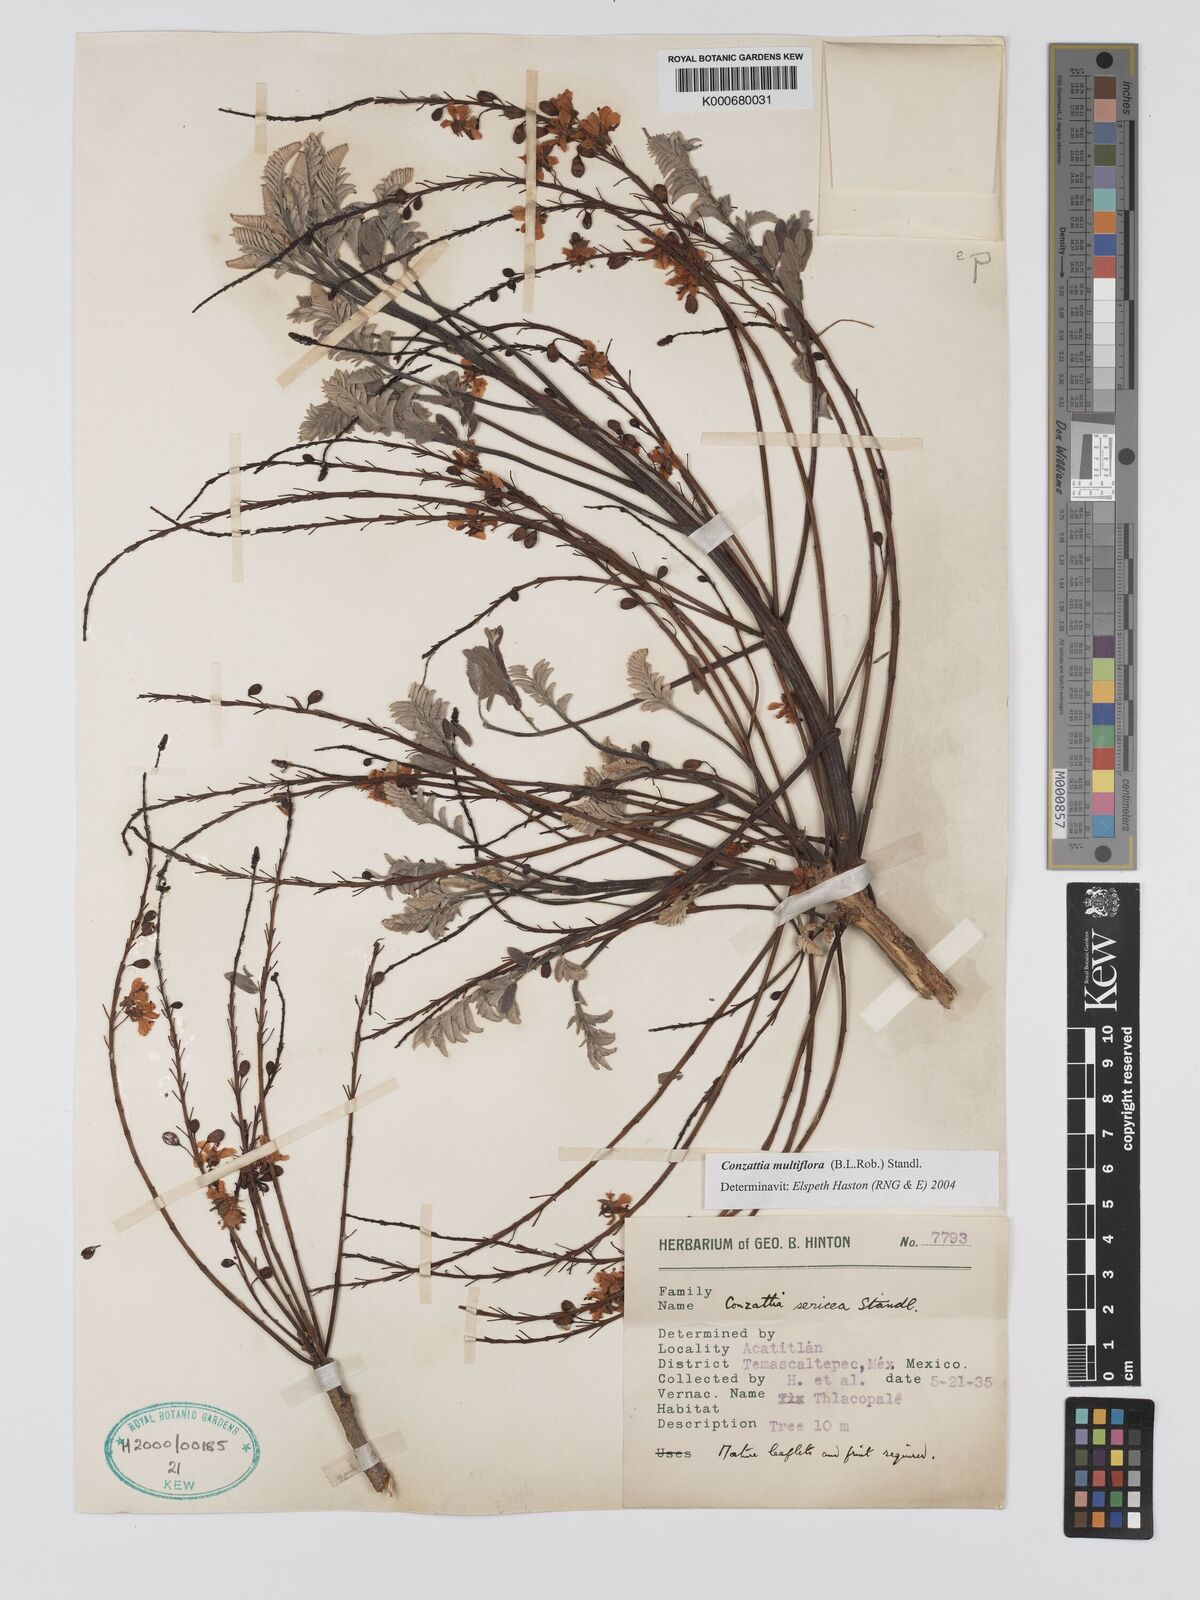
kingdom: Plantae
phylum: Tracheophyta
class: Magnoliopsida
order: Fabales
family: Fabaceae
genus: Conzattia
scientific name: Conzattia multiflora
